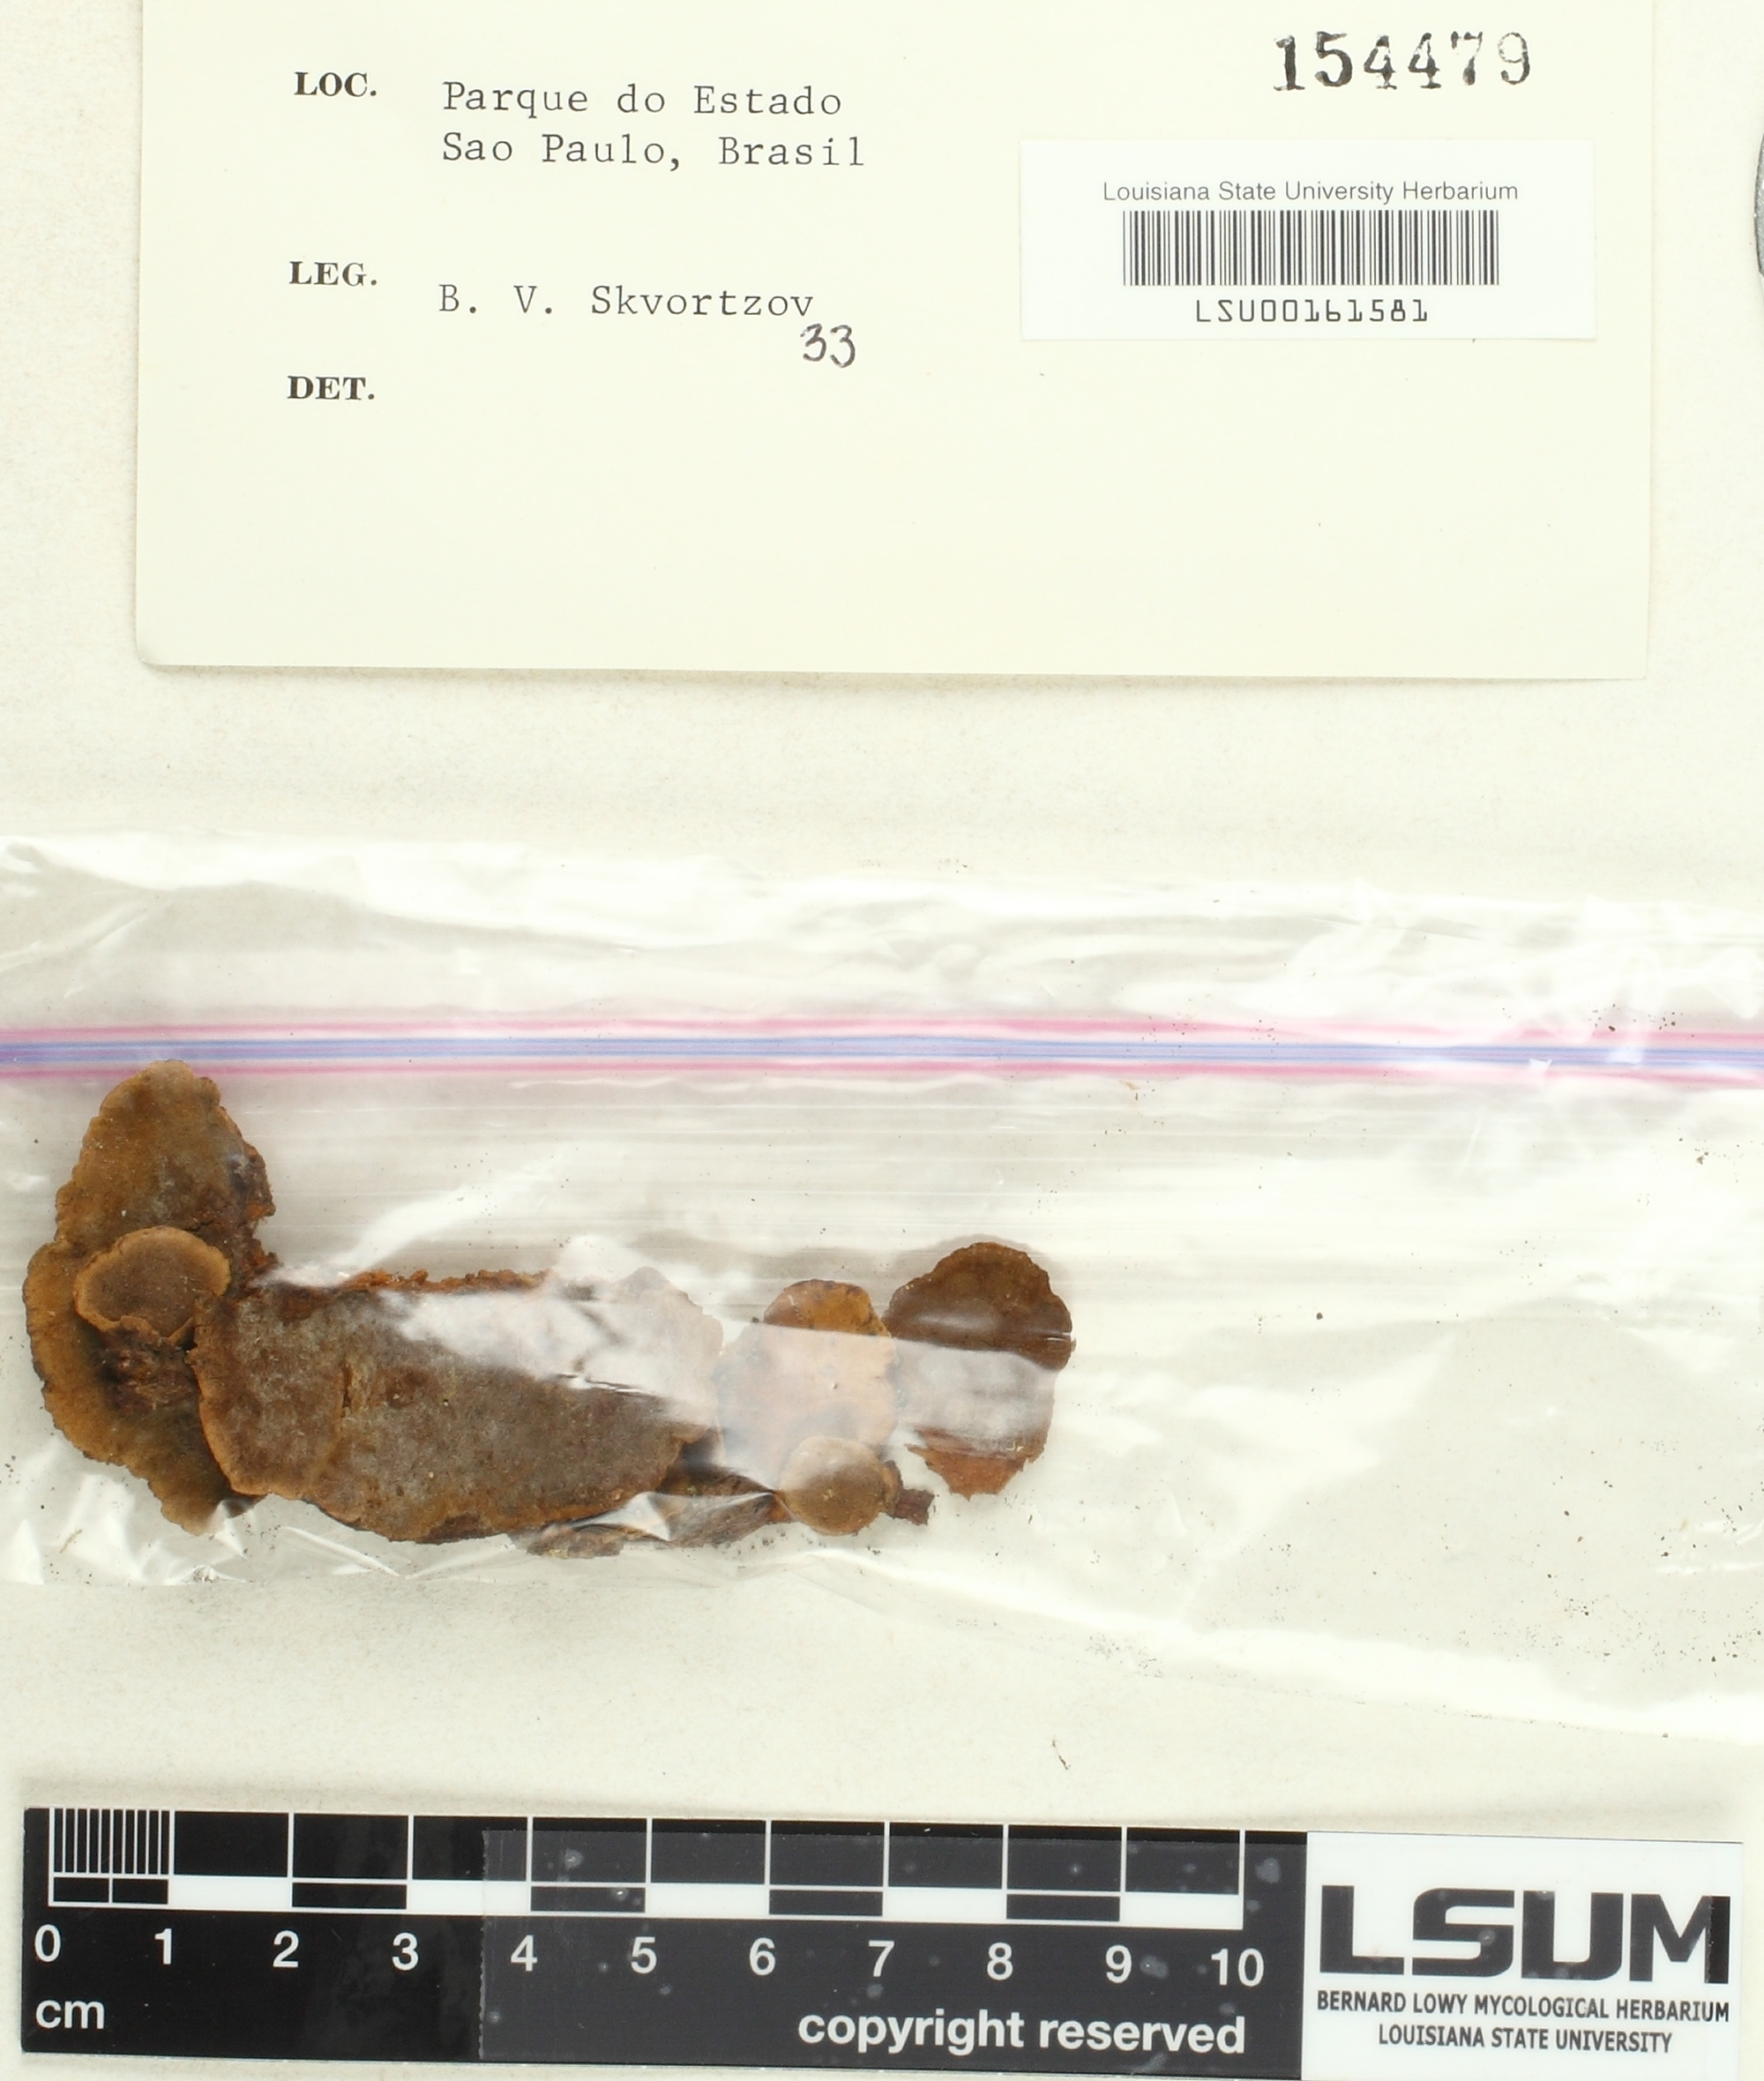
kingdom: Fungi
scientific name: Fungi
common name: Fungi
